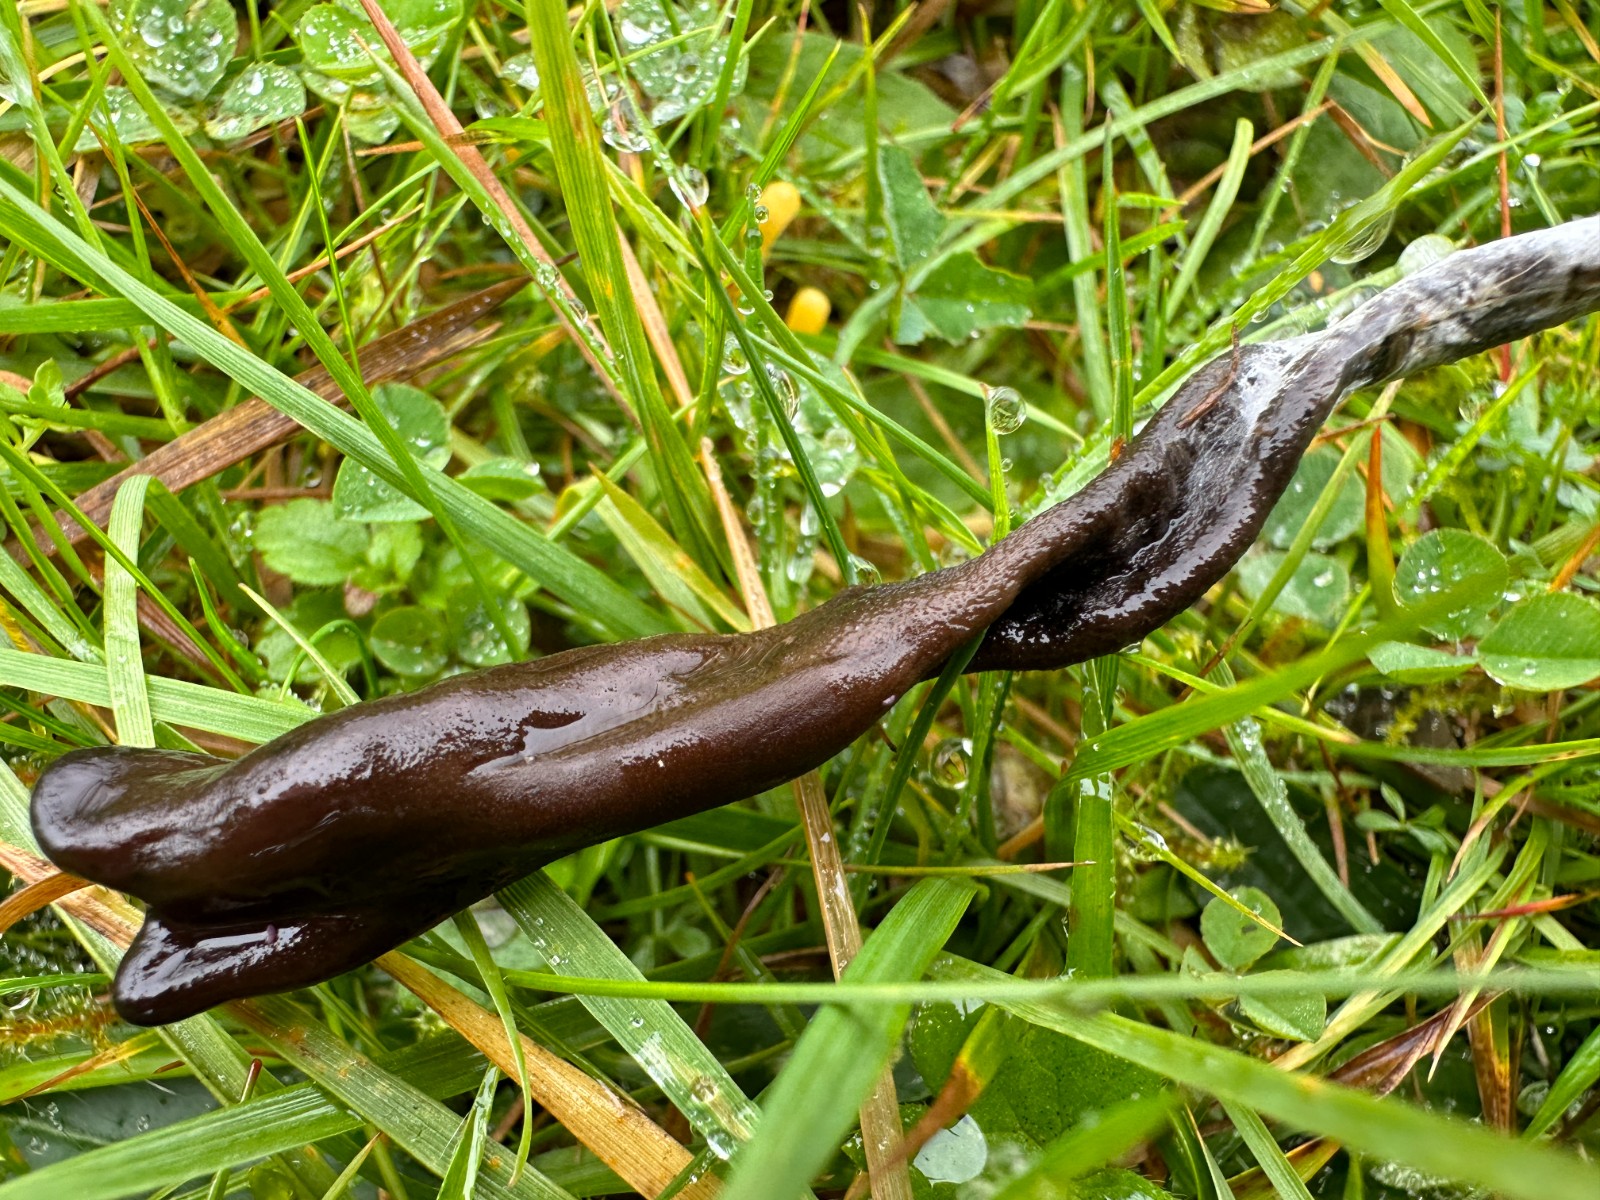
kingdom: Fungi
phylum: Ascomycota
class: Geoglossomycetes
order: Geoglossales
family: Geoglossaceae
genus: Thuemenidium
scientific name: Thuemenidium
